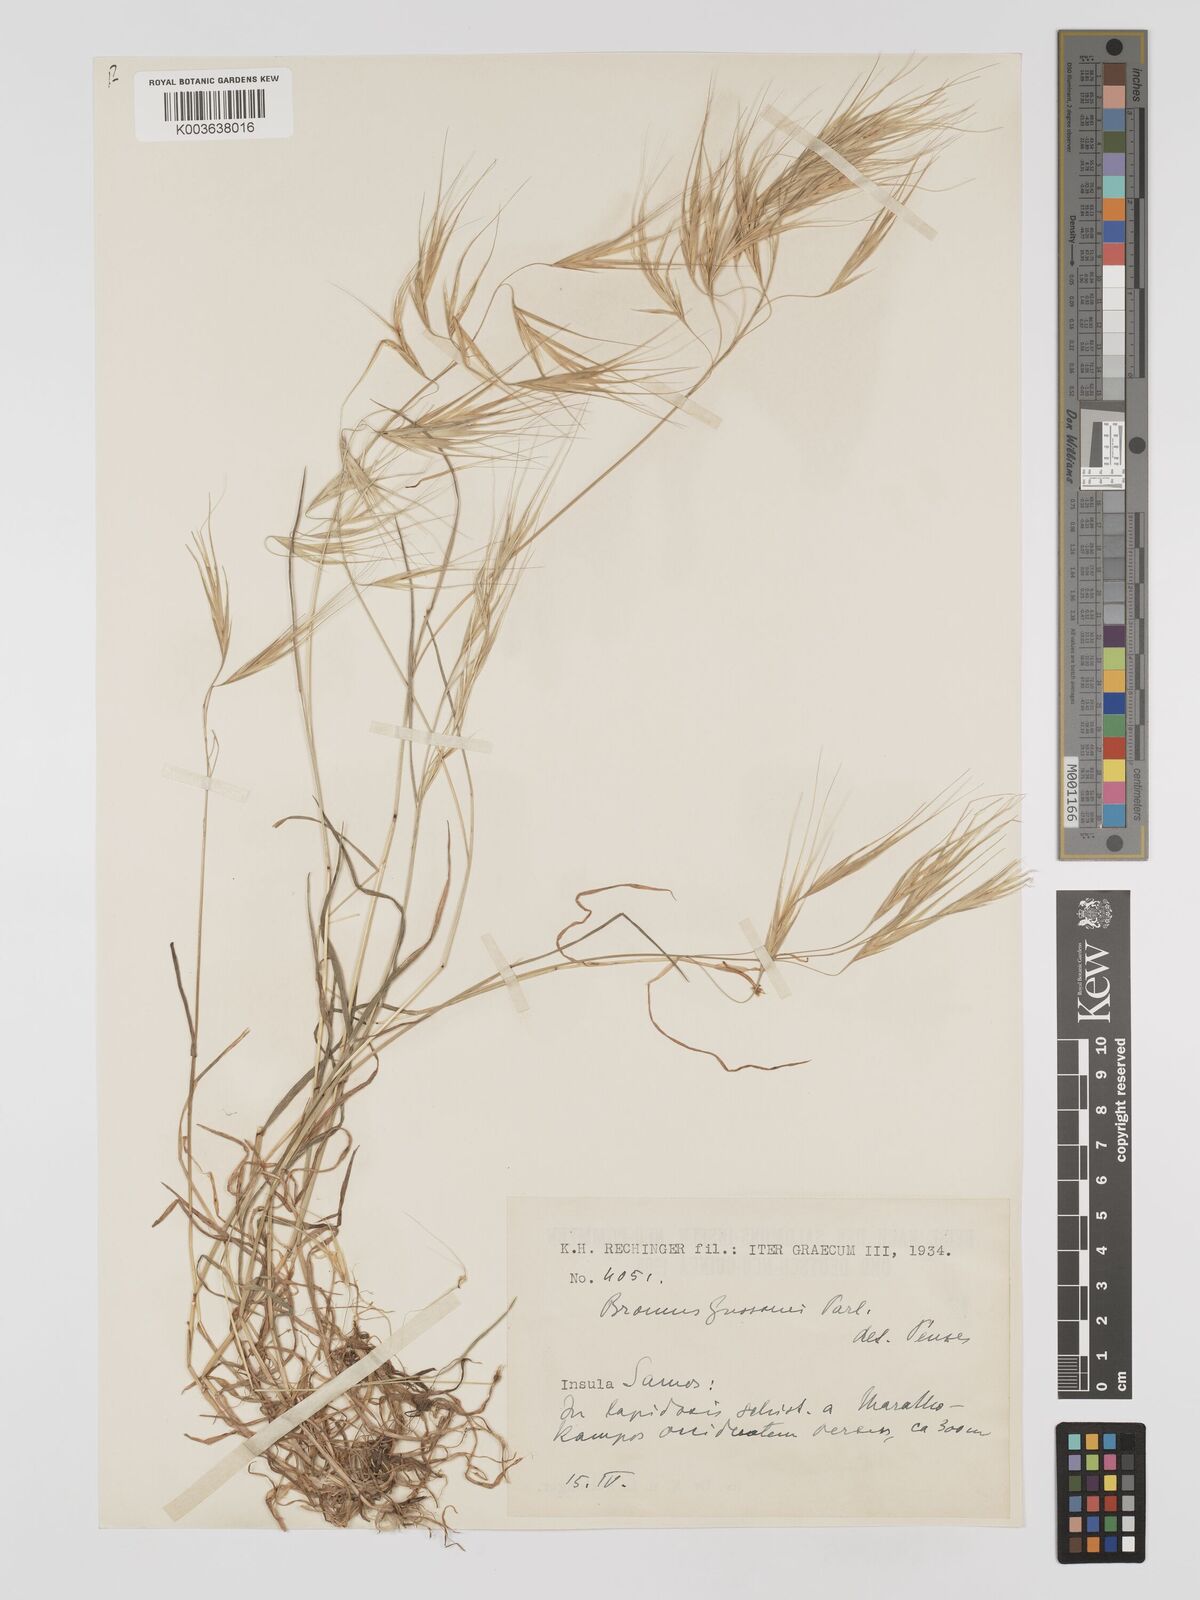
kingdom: Plantae
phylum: Tracheophyta
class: Liliopsida
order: Poales
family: Poaceae
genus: Bromus
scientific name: Bromus
